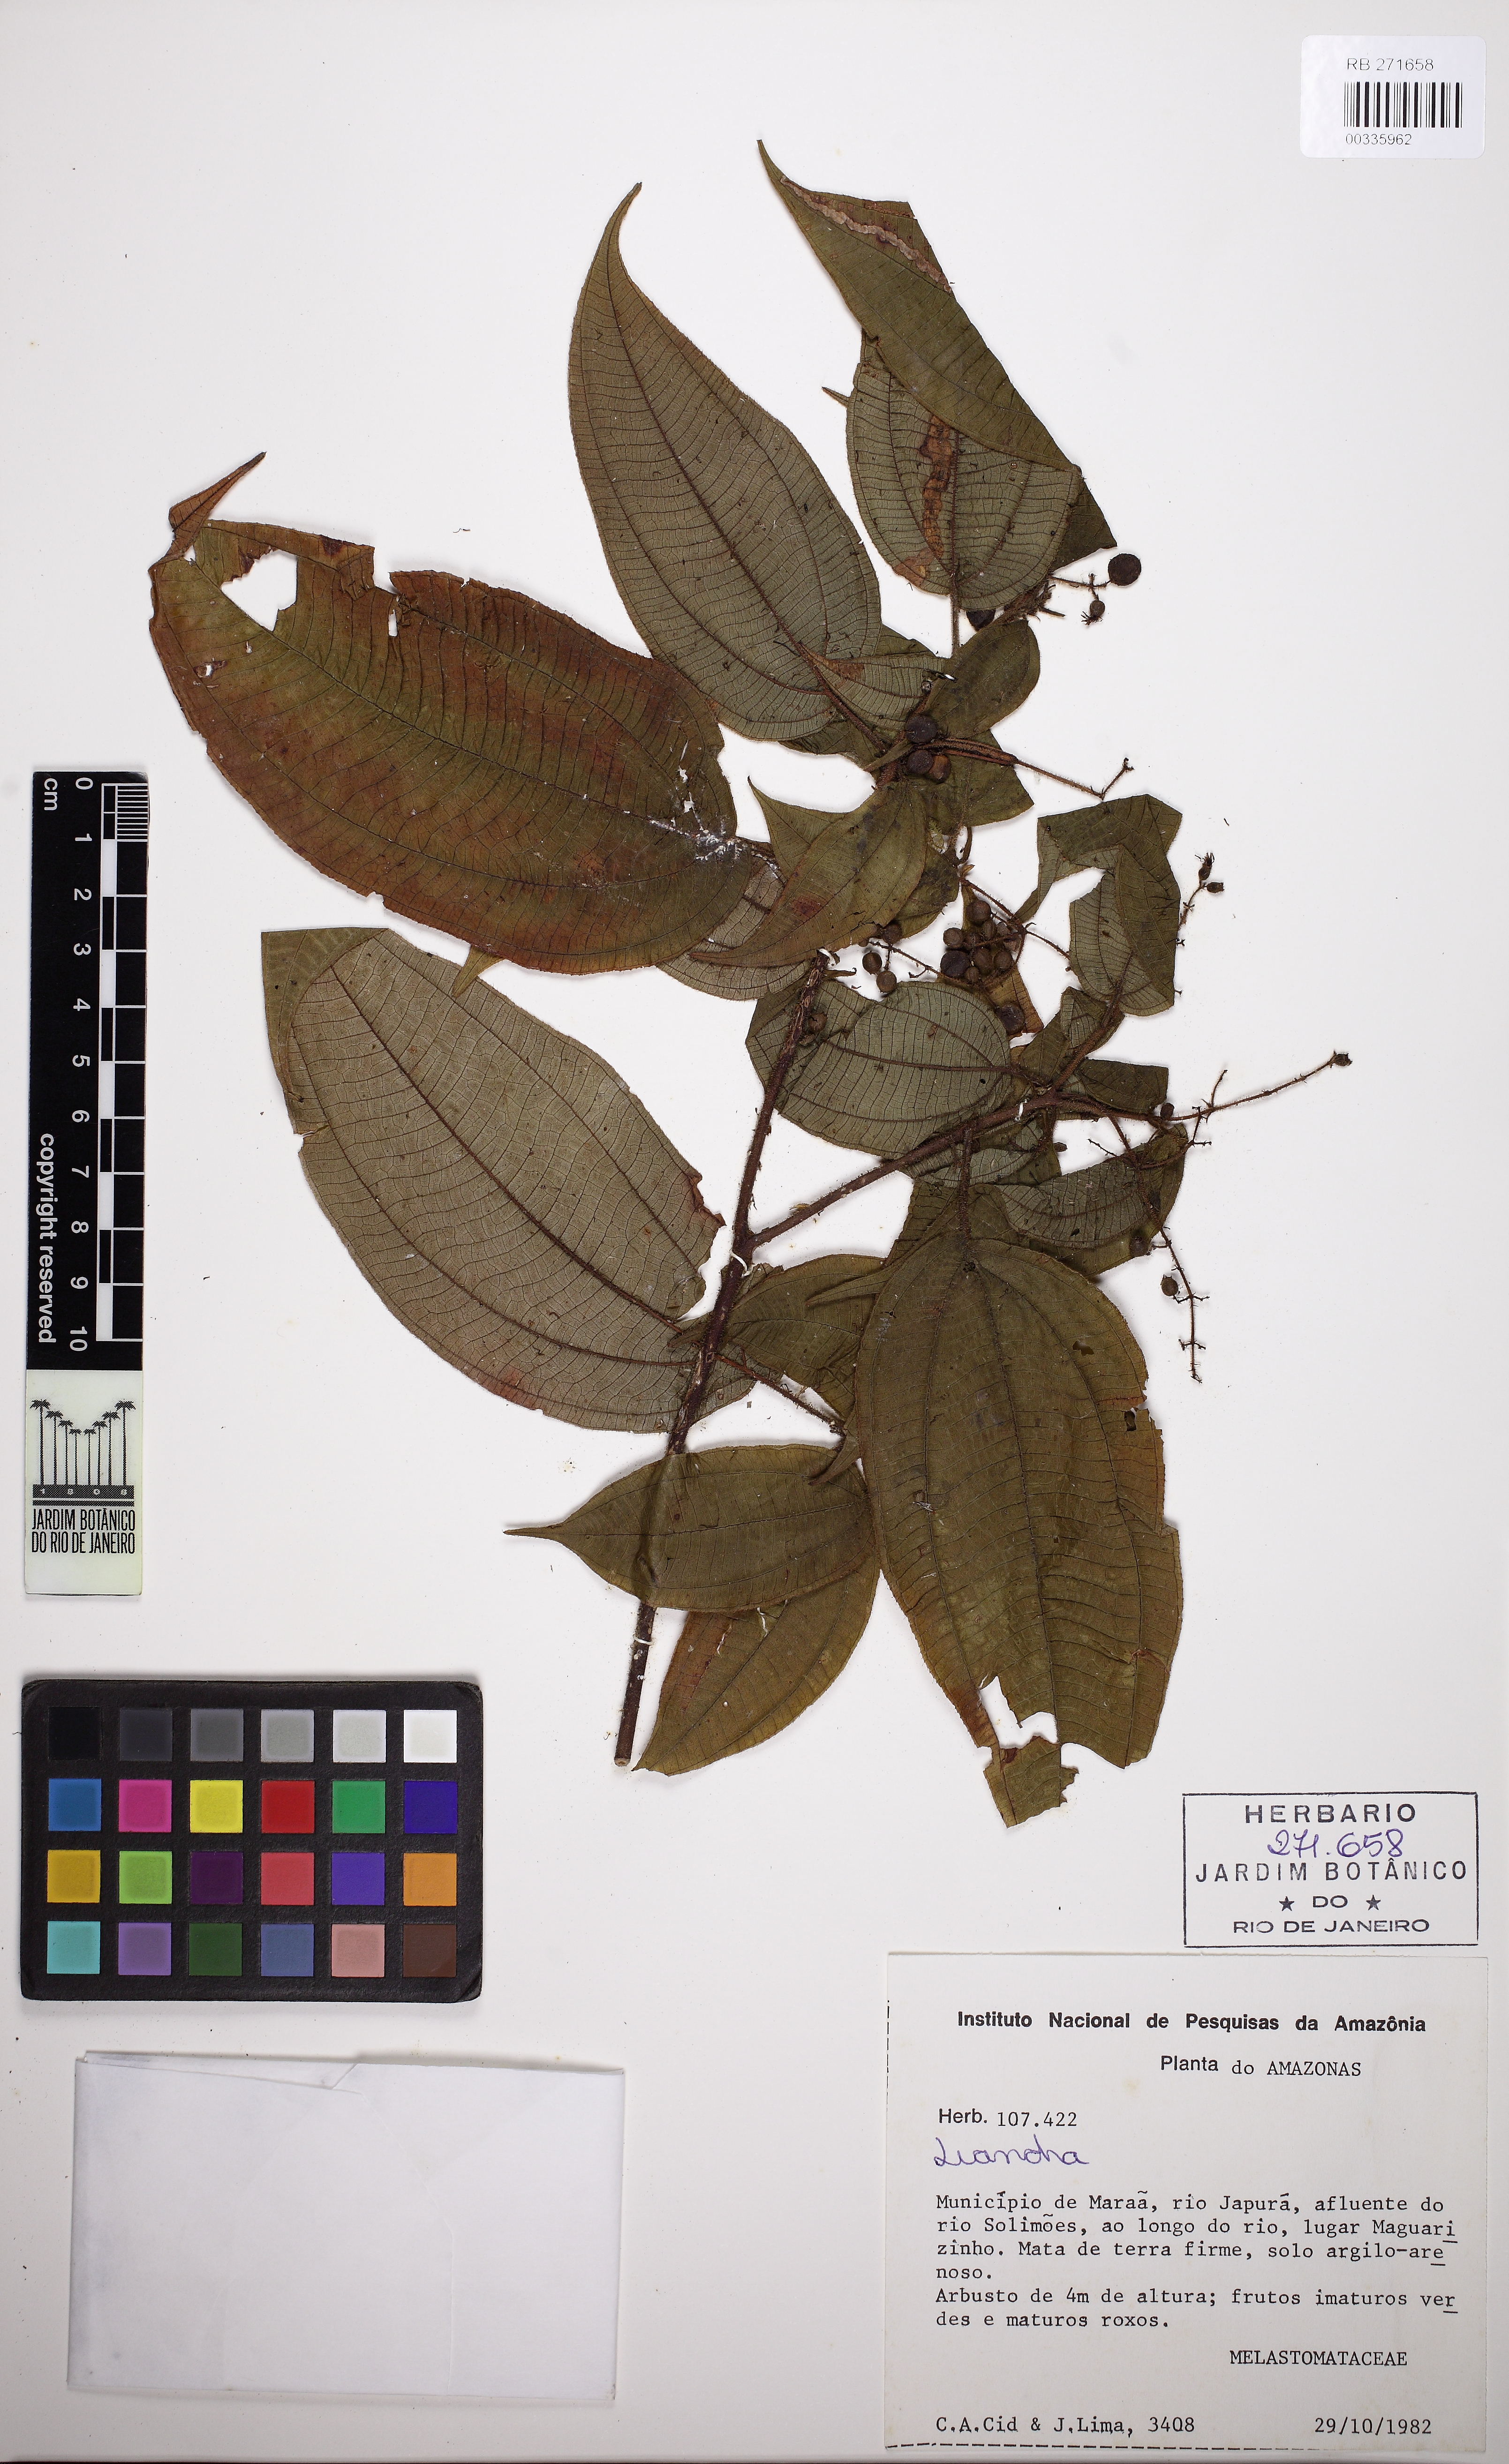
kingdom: Plantae
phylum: Tracheophyta
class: Magnoliopsida
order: Myrtales
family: Melastomataceae
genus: Miconia
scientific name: Miconia
